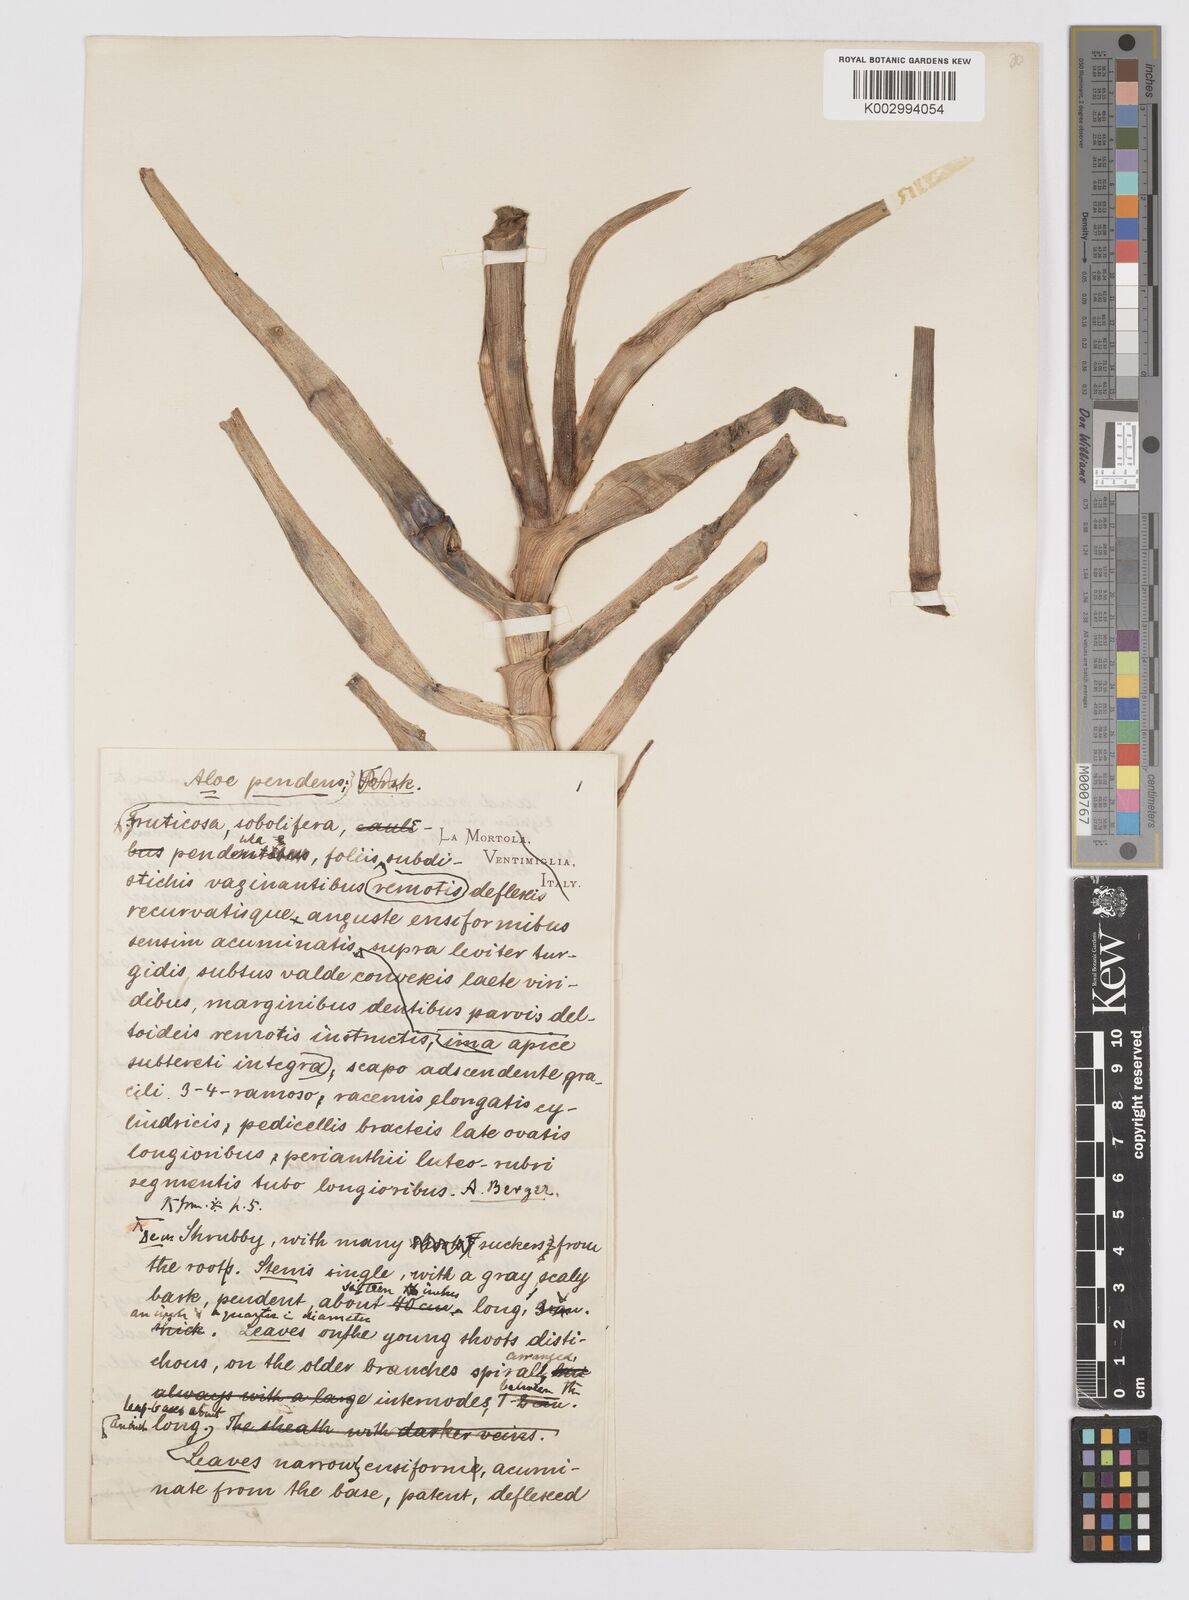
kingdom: Plantae
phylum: Tracheophyta
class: Liliopsida
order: Asparagales
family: Asphodelaceae
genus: Aloe
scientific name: Aloe yemenica
